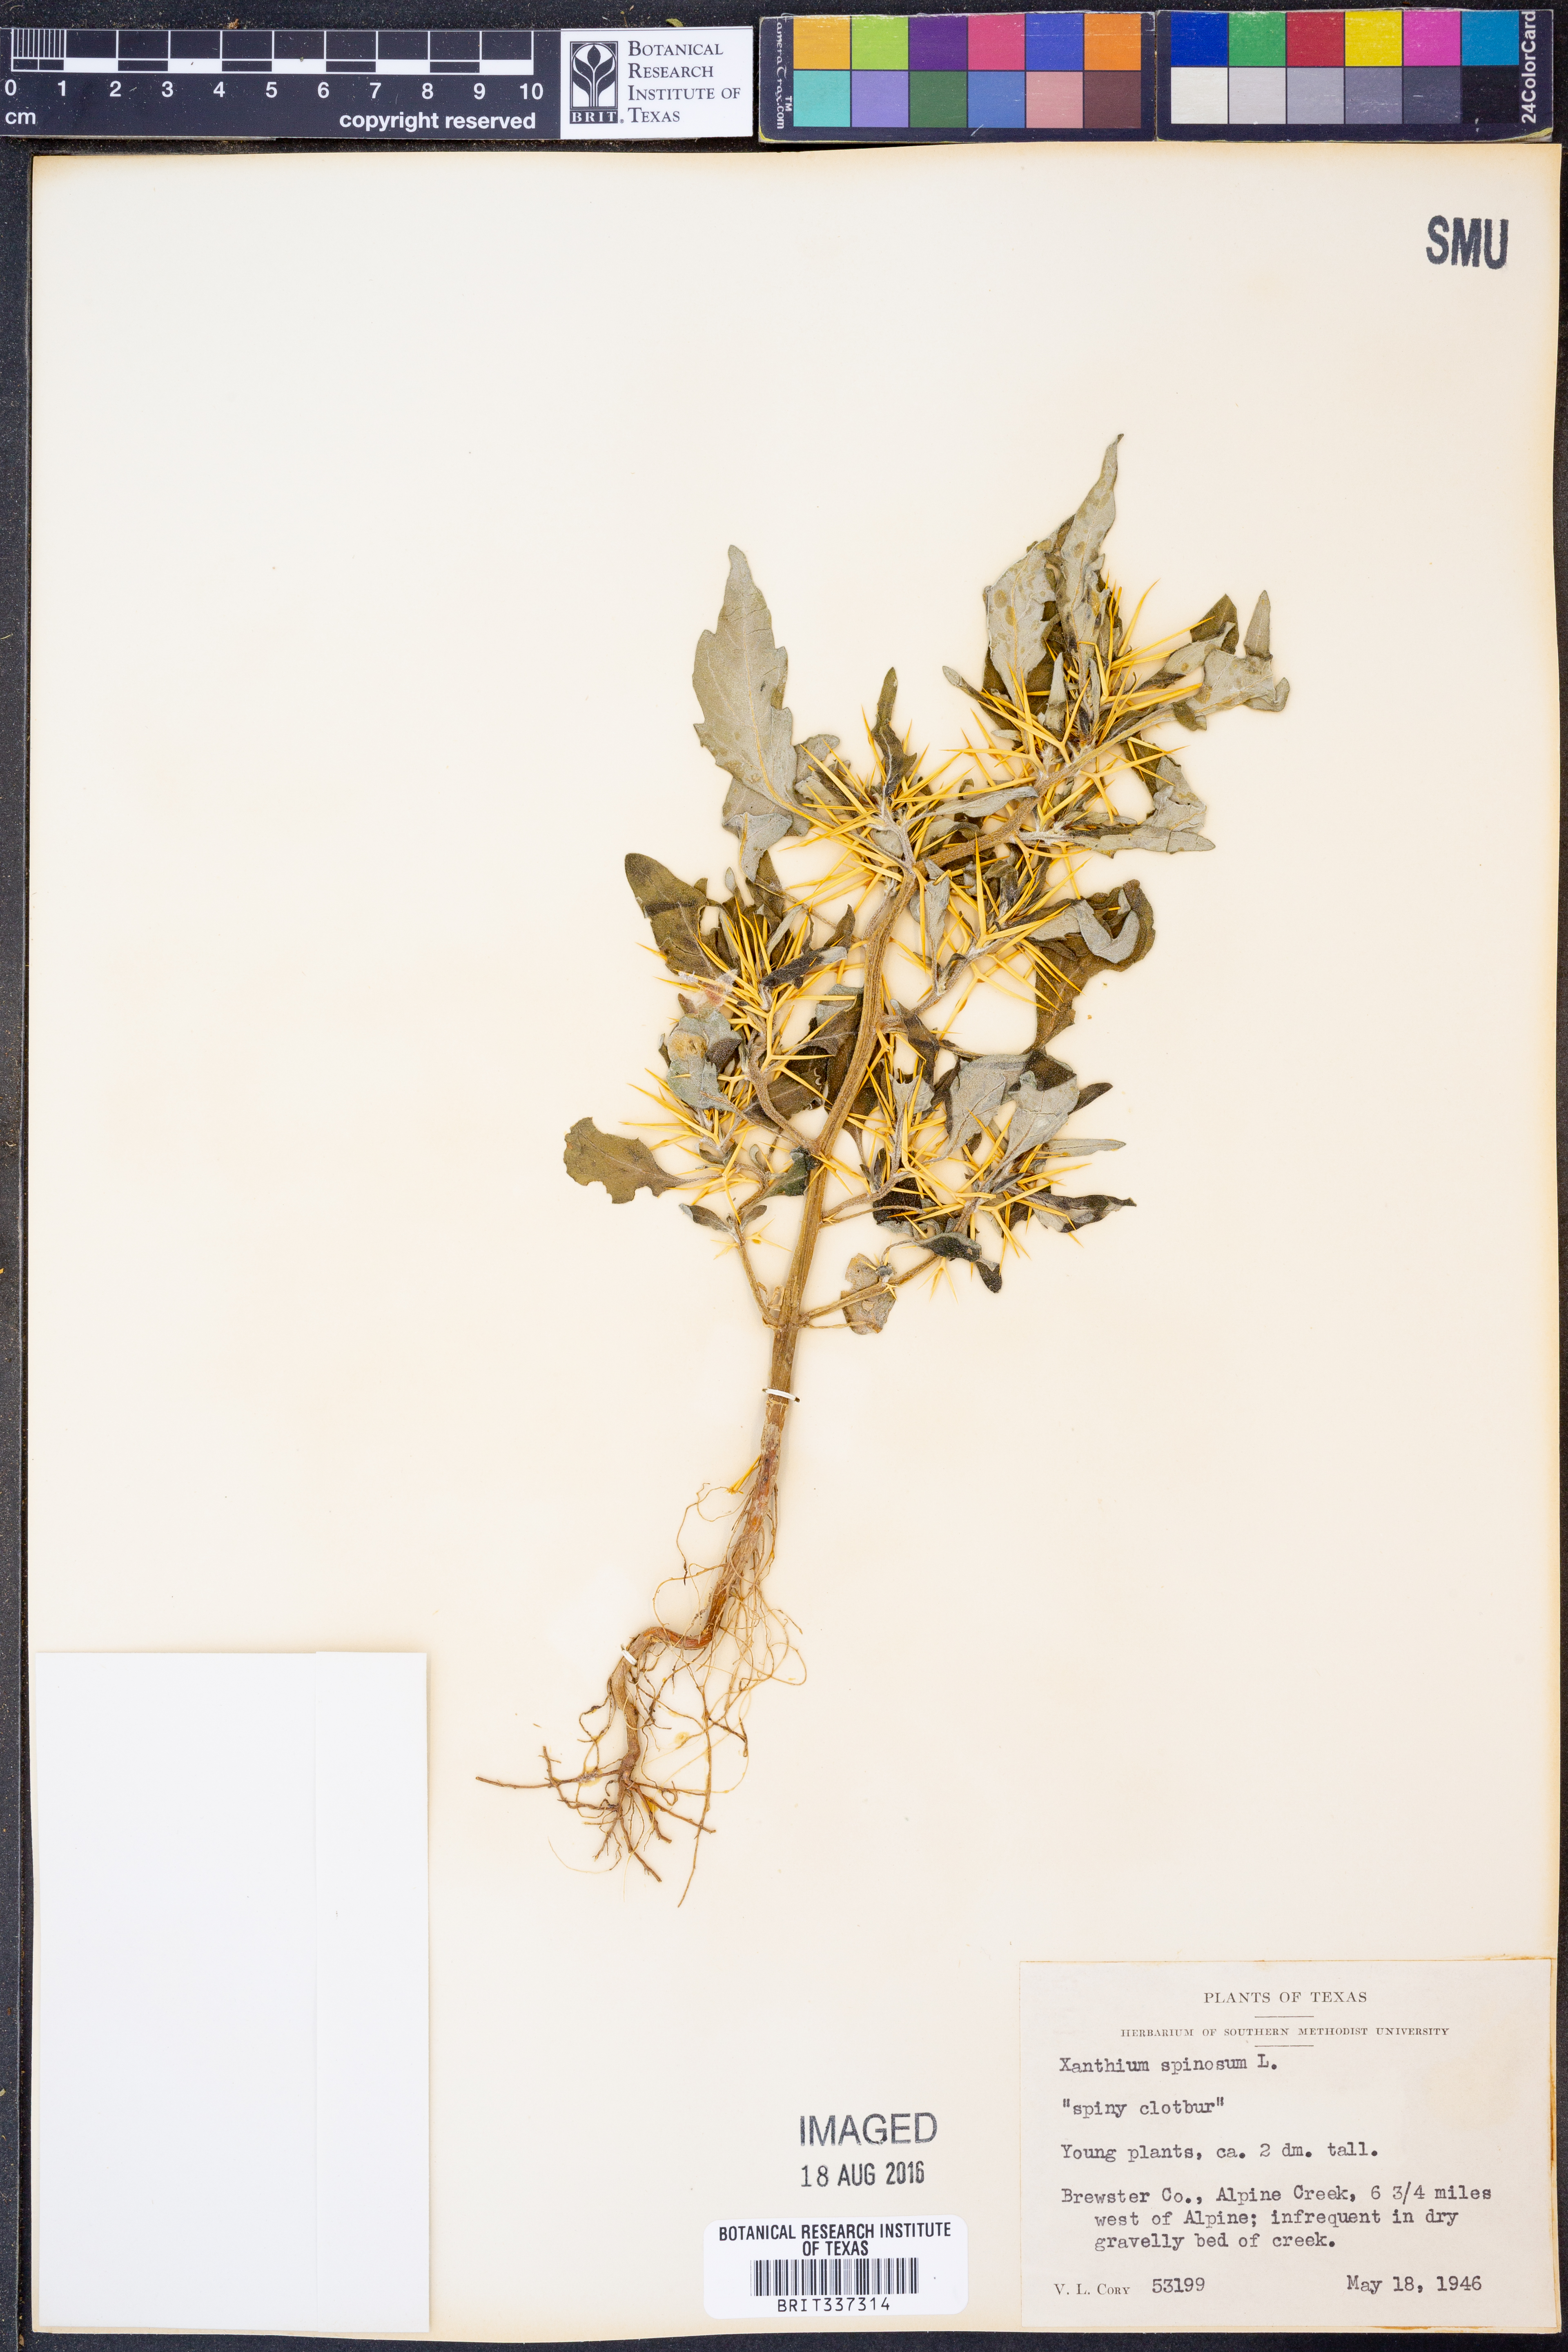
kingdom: Plantae
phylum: Tracheophyta
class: Magnoliopsida
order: Asterales
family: Asteraceae
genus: Xanthium
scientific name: Xanthium spinosum
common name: Spiny cocklebur
